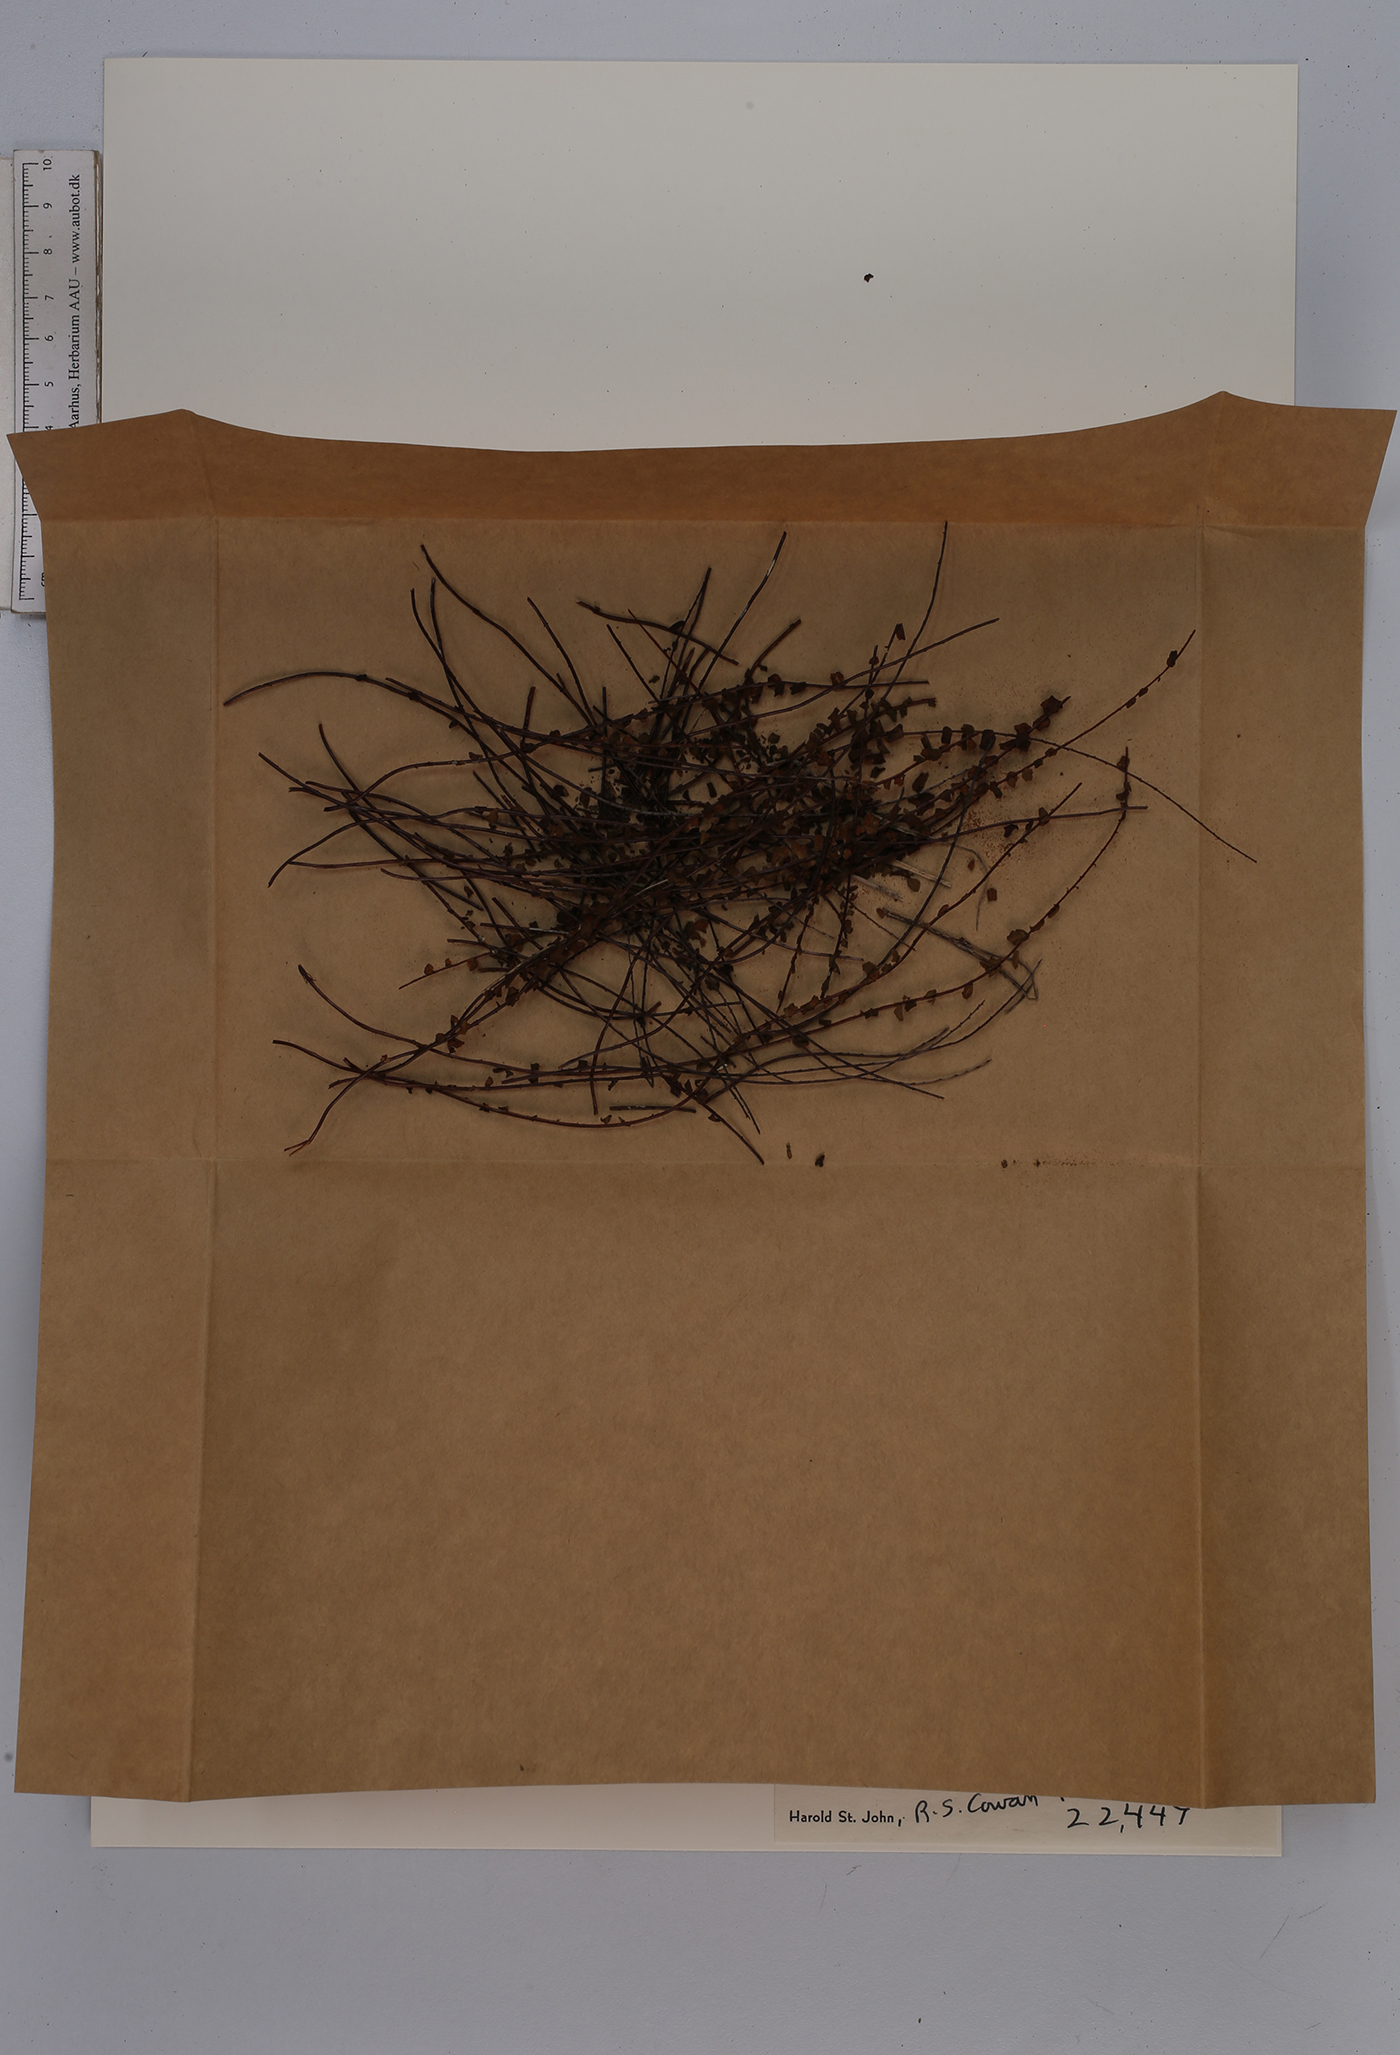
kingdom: Plantae
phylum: Tracheophyta
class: Polypodiopsida
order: Polypodiales
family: Aspleniaceae
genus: Asplenium
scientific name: Asplenium trichomanes
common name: Maidenhair spleenwort
